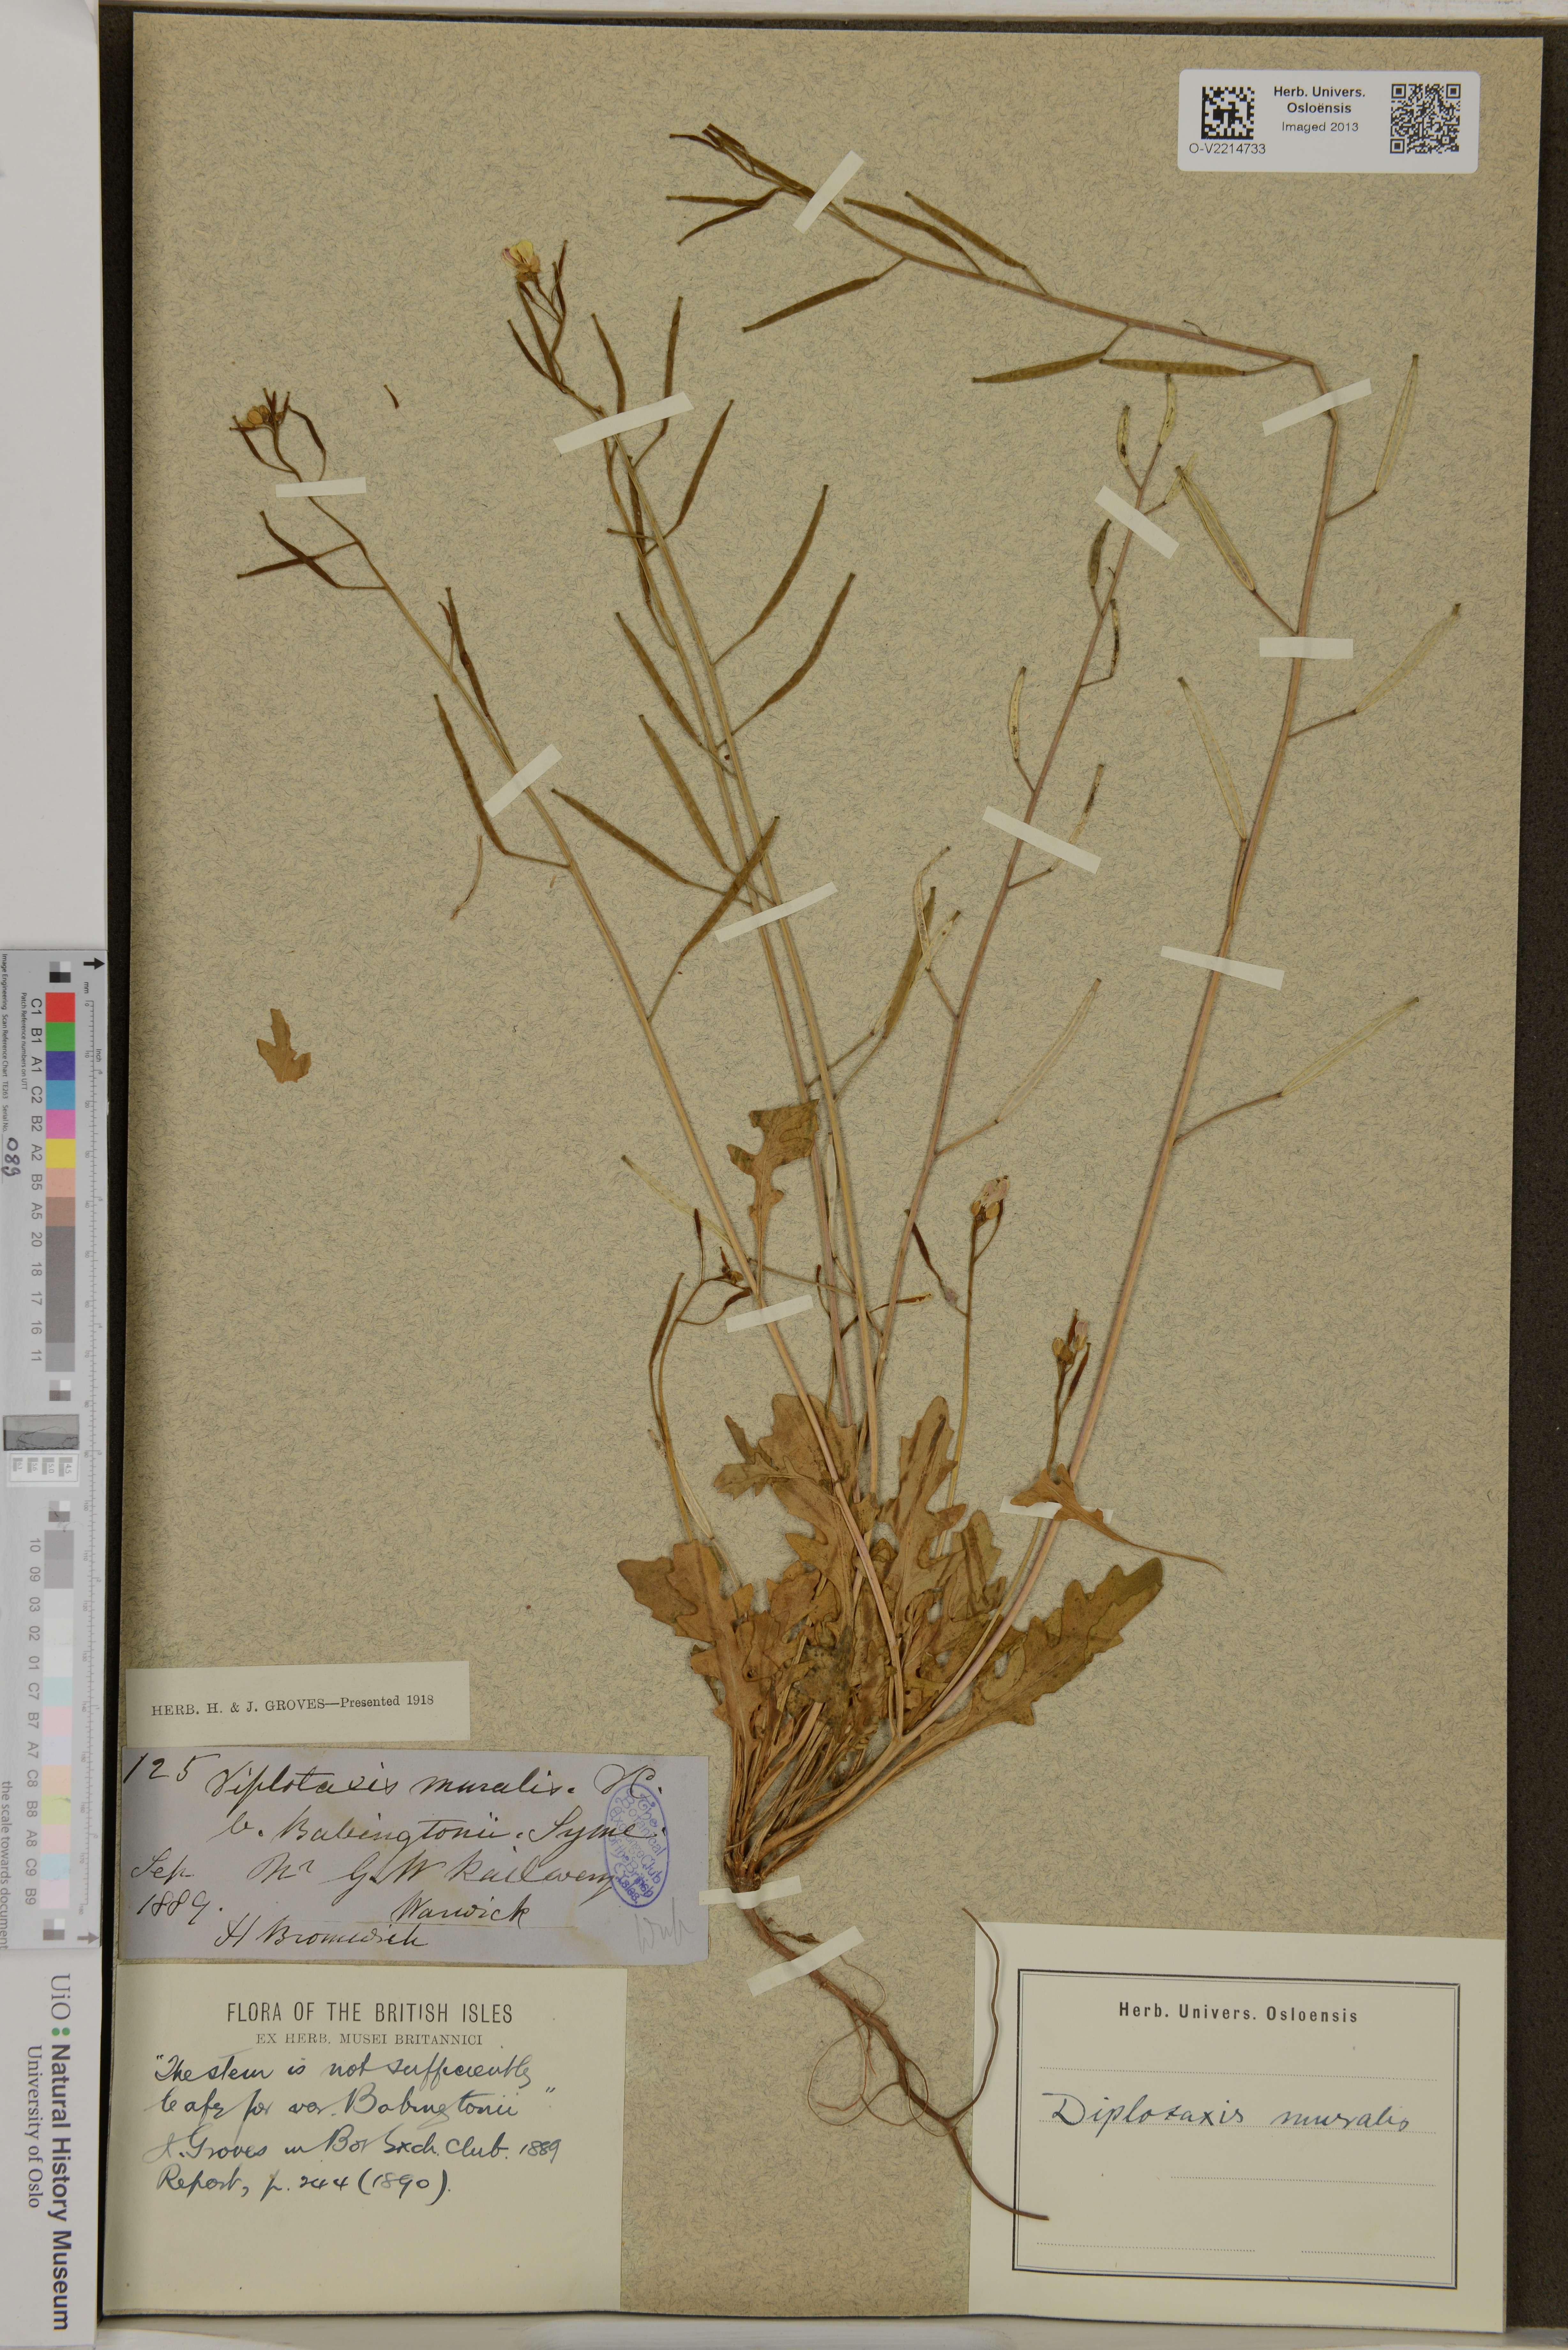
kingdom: Plantae
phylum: Tracheophyta
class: Magnoliopsida
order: Brassicales
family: Brassicaceae
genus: Diplotaxis
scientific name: Diplotaxis muralis
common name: Annual wall-rocket
